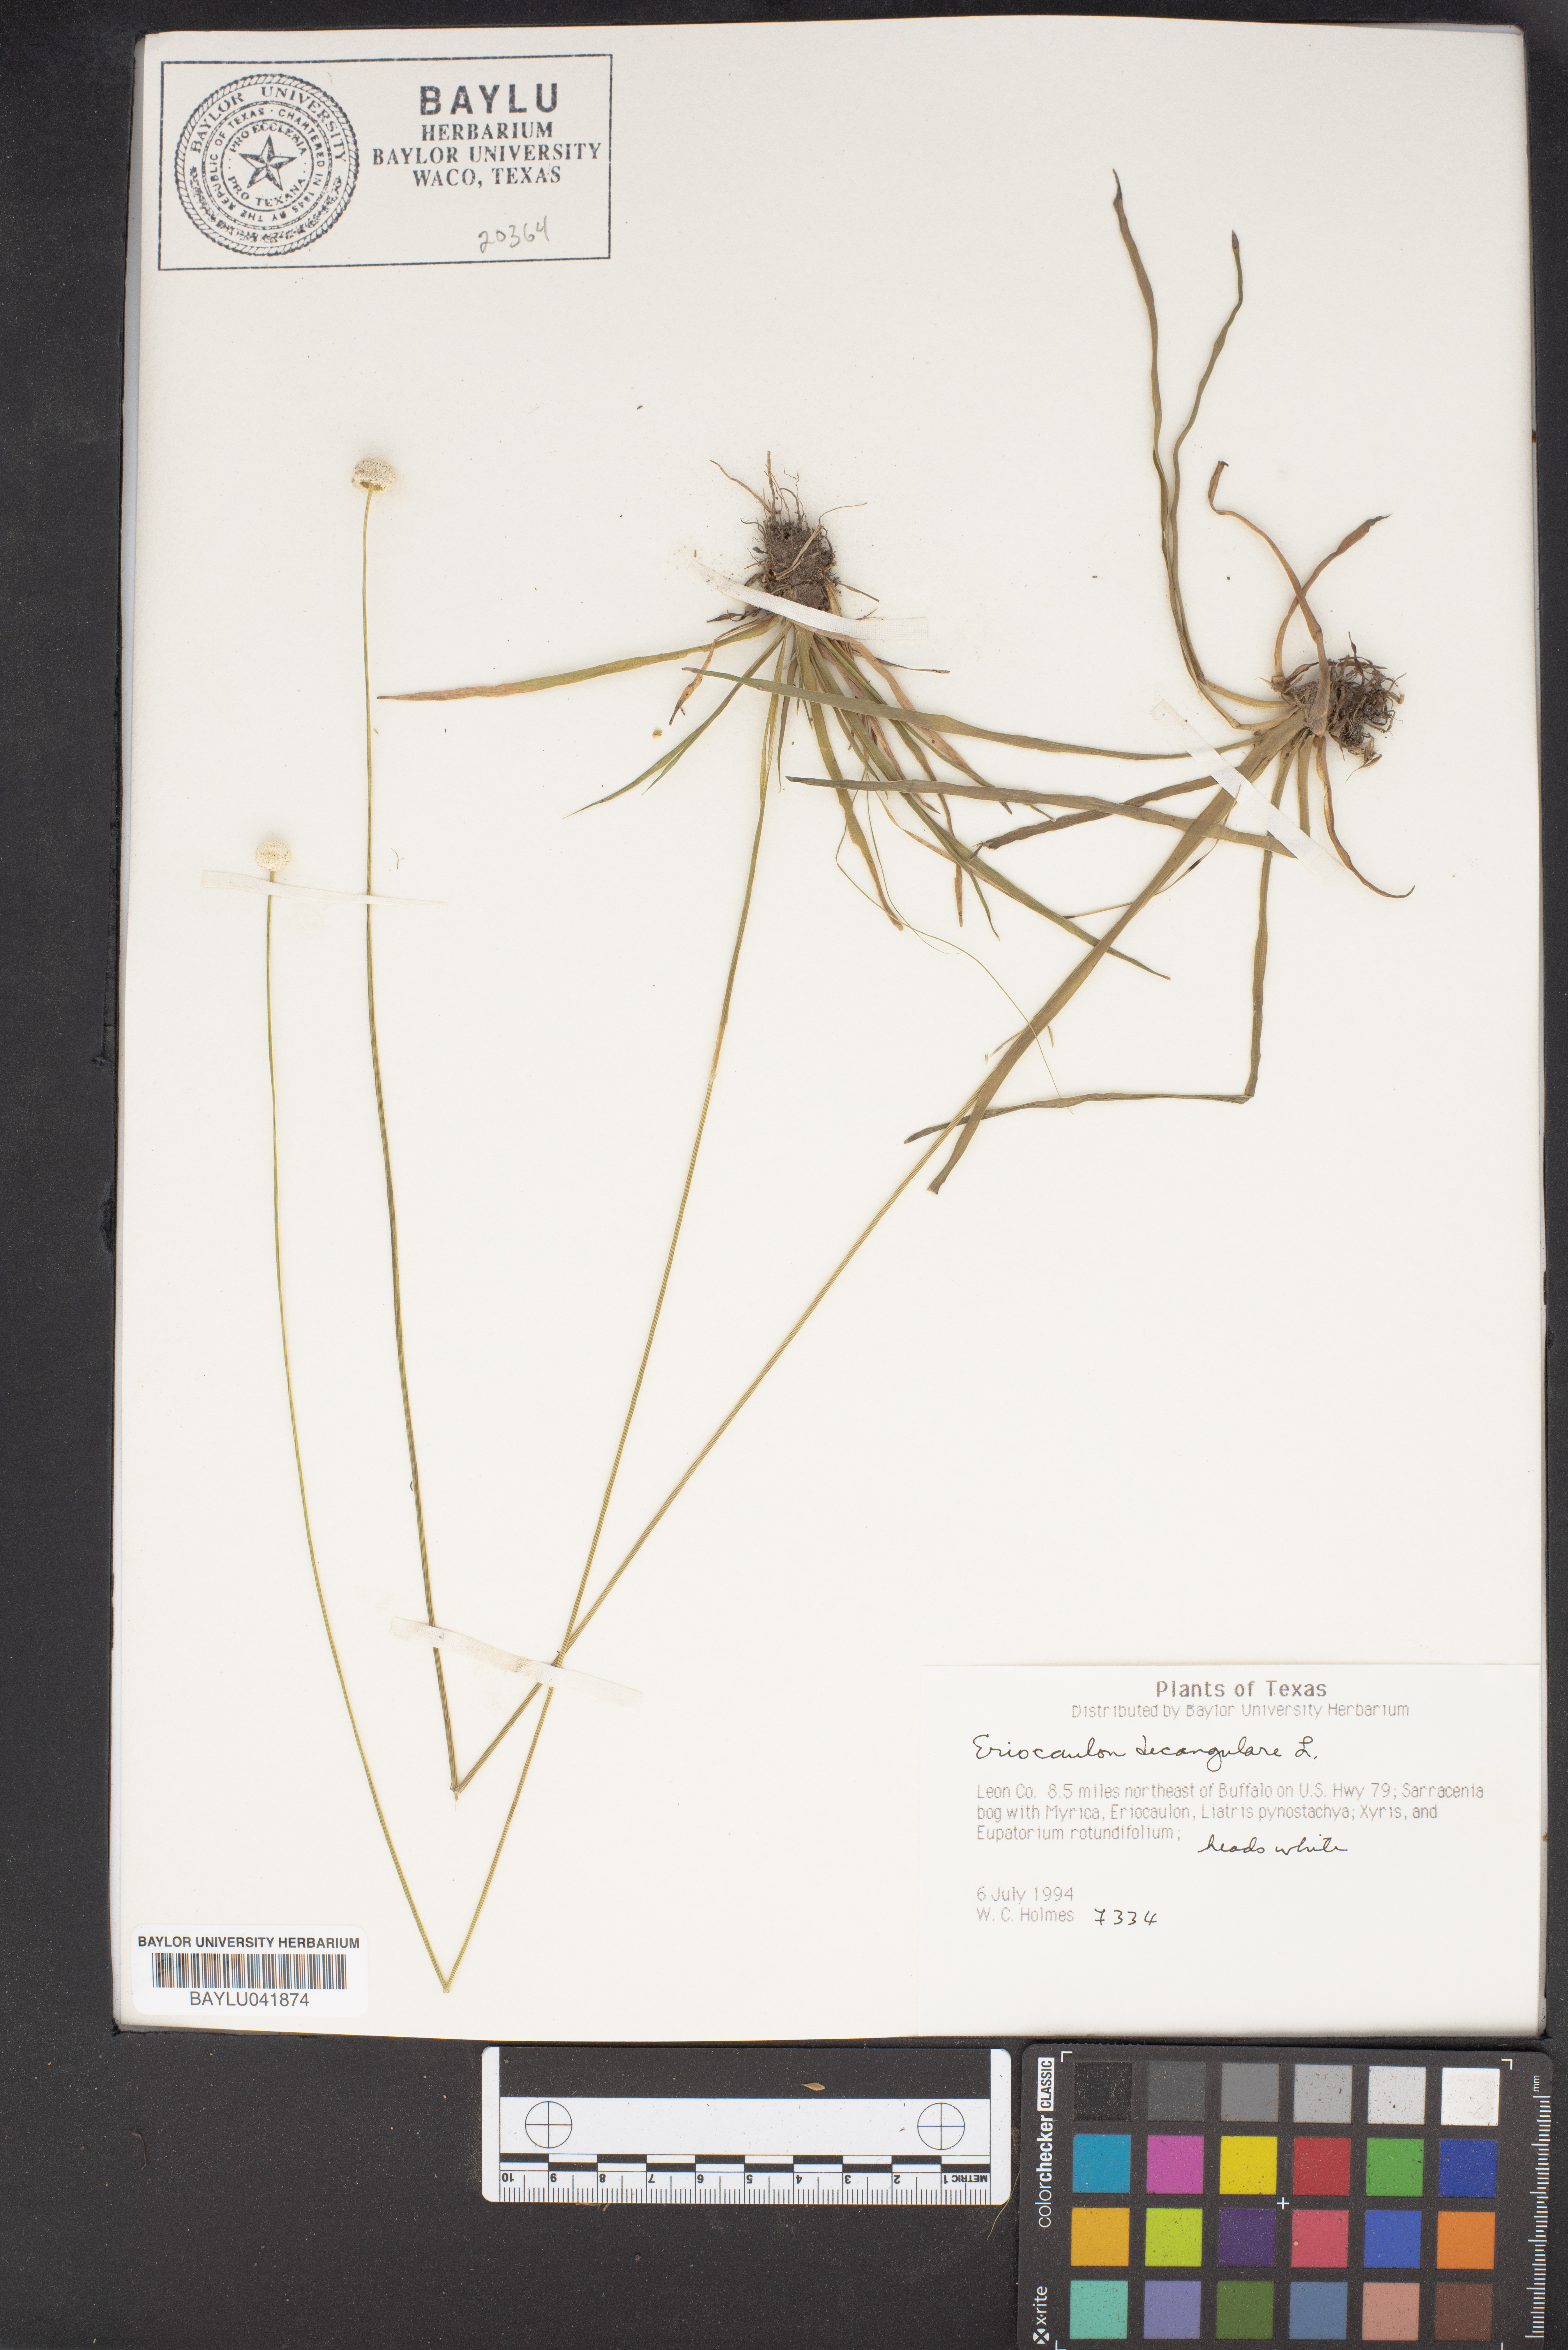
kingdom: Plantae
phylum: Tracheophyta
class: Liliopsida
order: Poales
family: Eriocaulaceae
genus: Eriocaulon
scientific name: Eriocaulon decangulare
